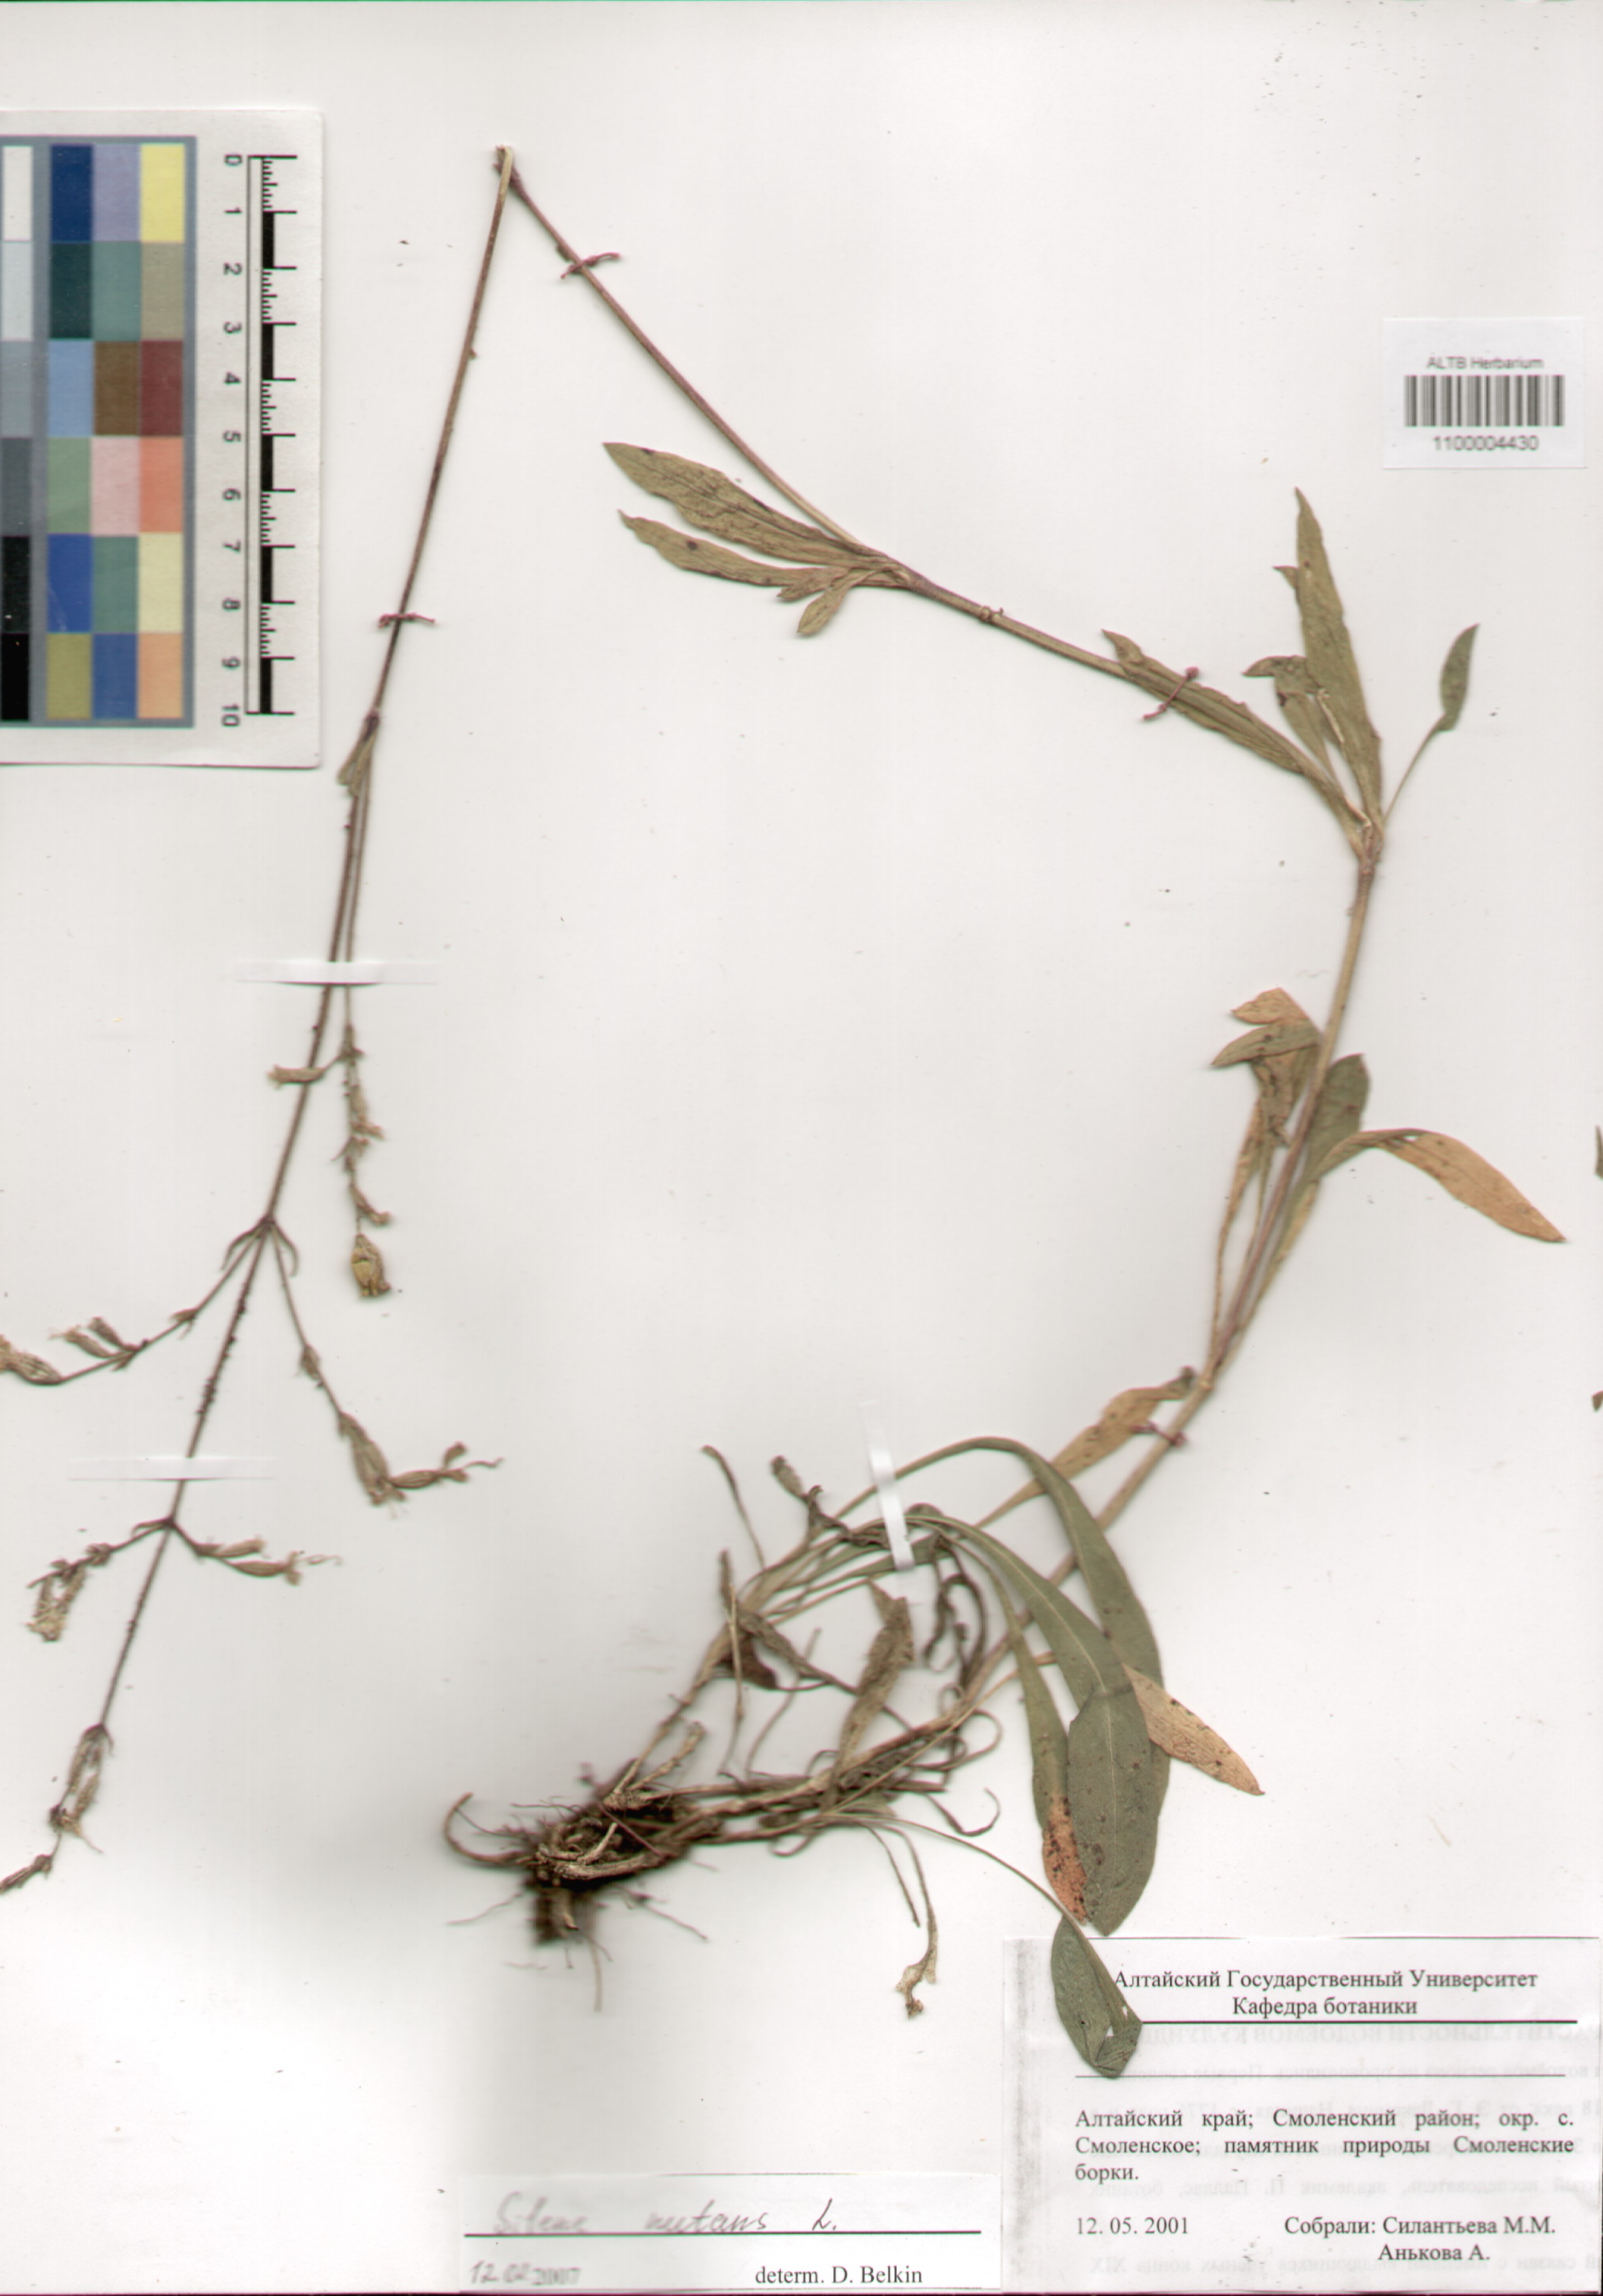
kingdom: Plantae
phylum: Tracheophyta
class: Magnoliopsida
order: Caryophyllales
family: Caryophyllaceae
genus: Silene
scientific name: Silene nutans
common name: Nottingham catchfly
